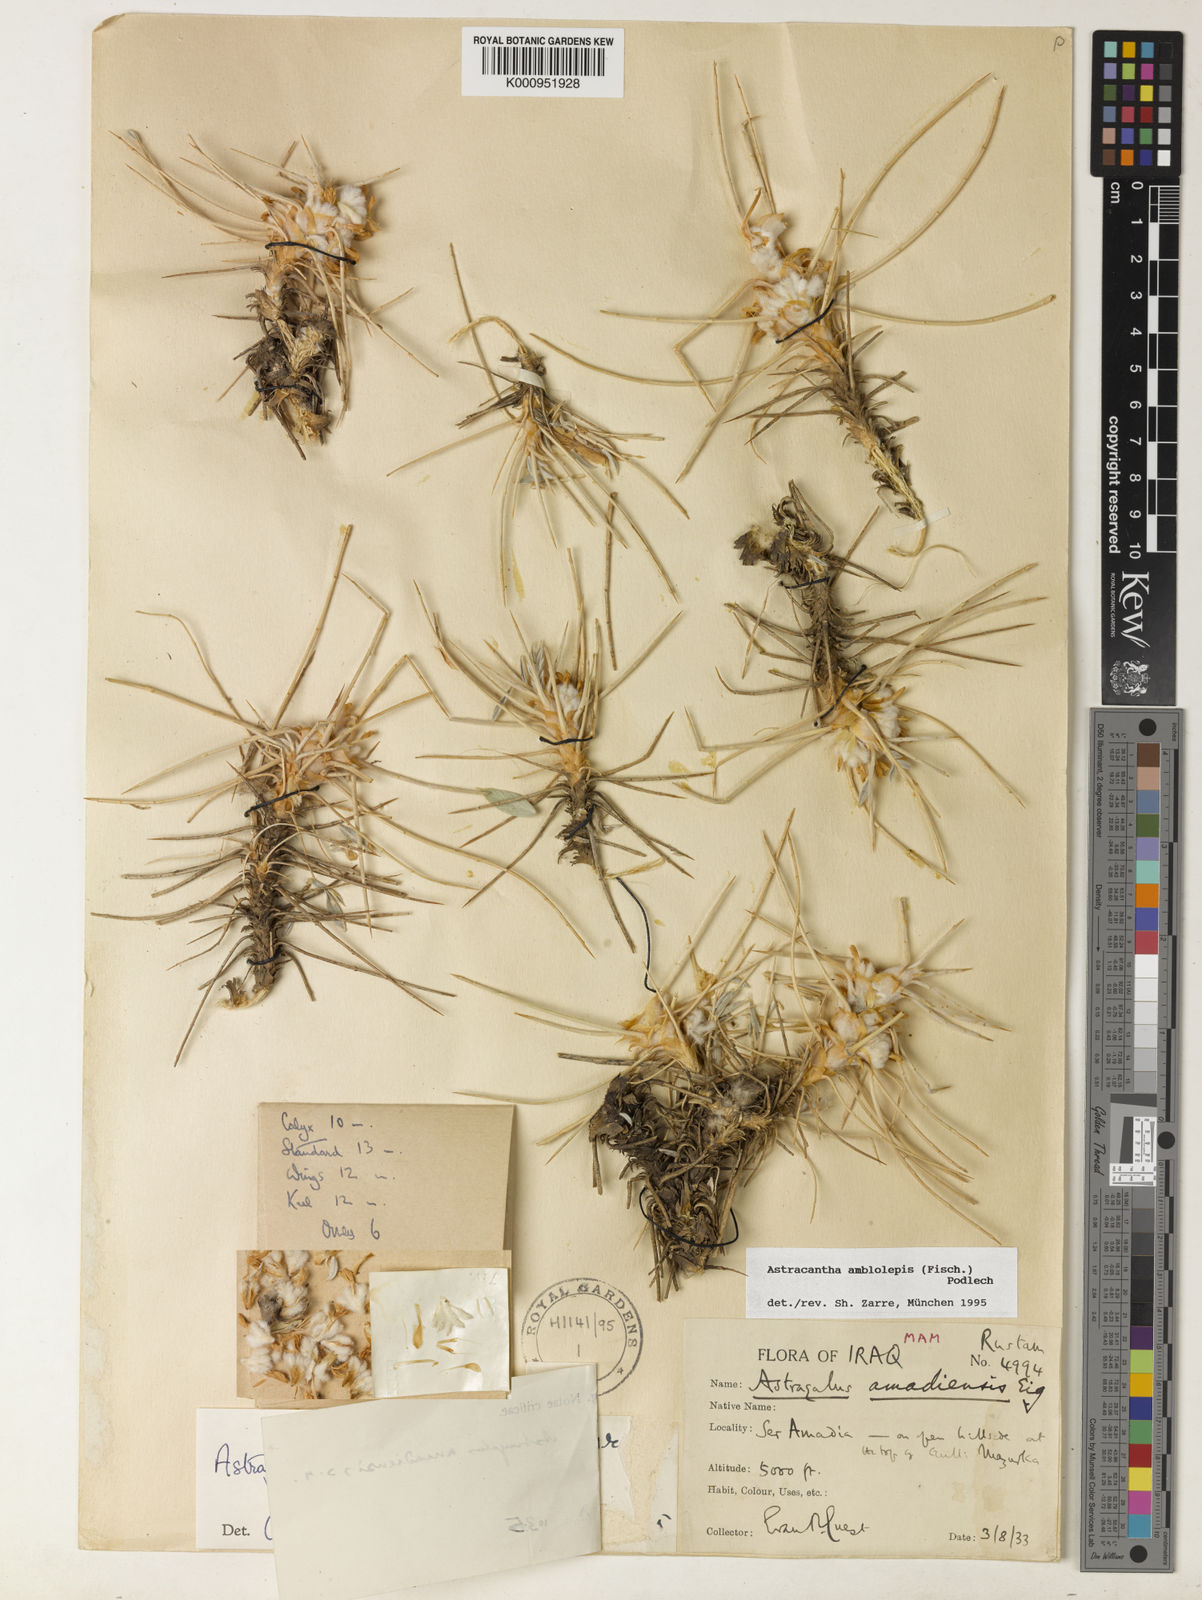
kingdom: Plantae
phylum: Tracheophyta
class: Magnoliopsida
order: Fabales
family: Fabaceae
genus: Astragalus
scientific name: Astragalus amblolepis
